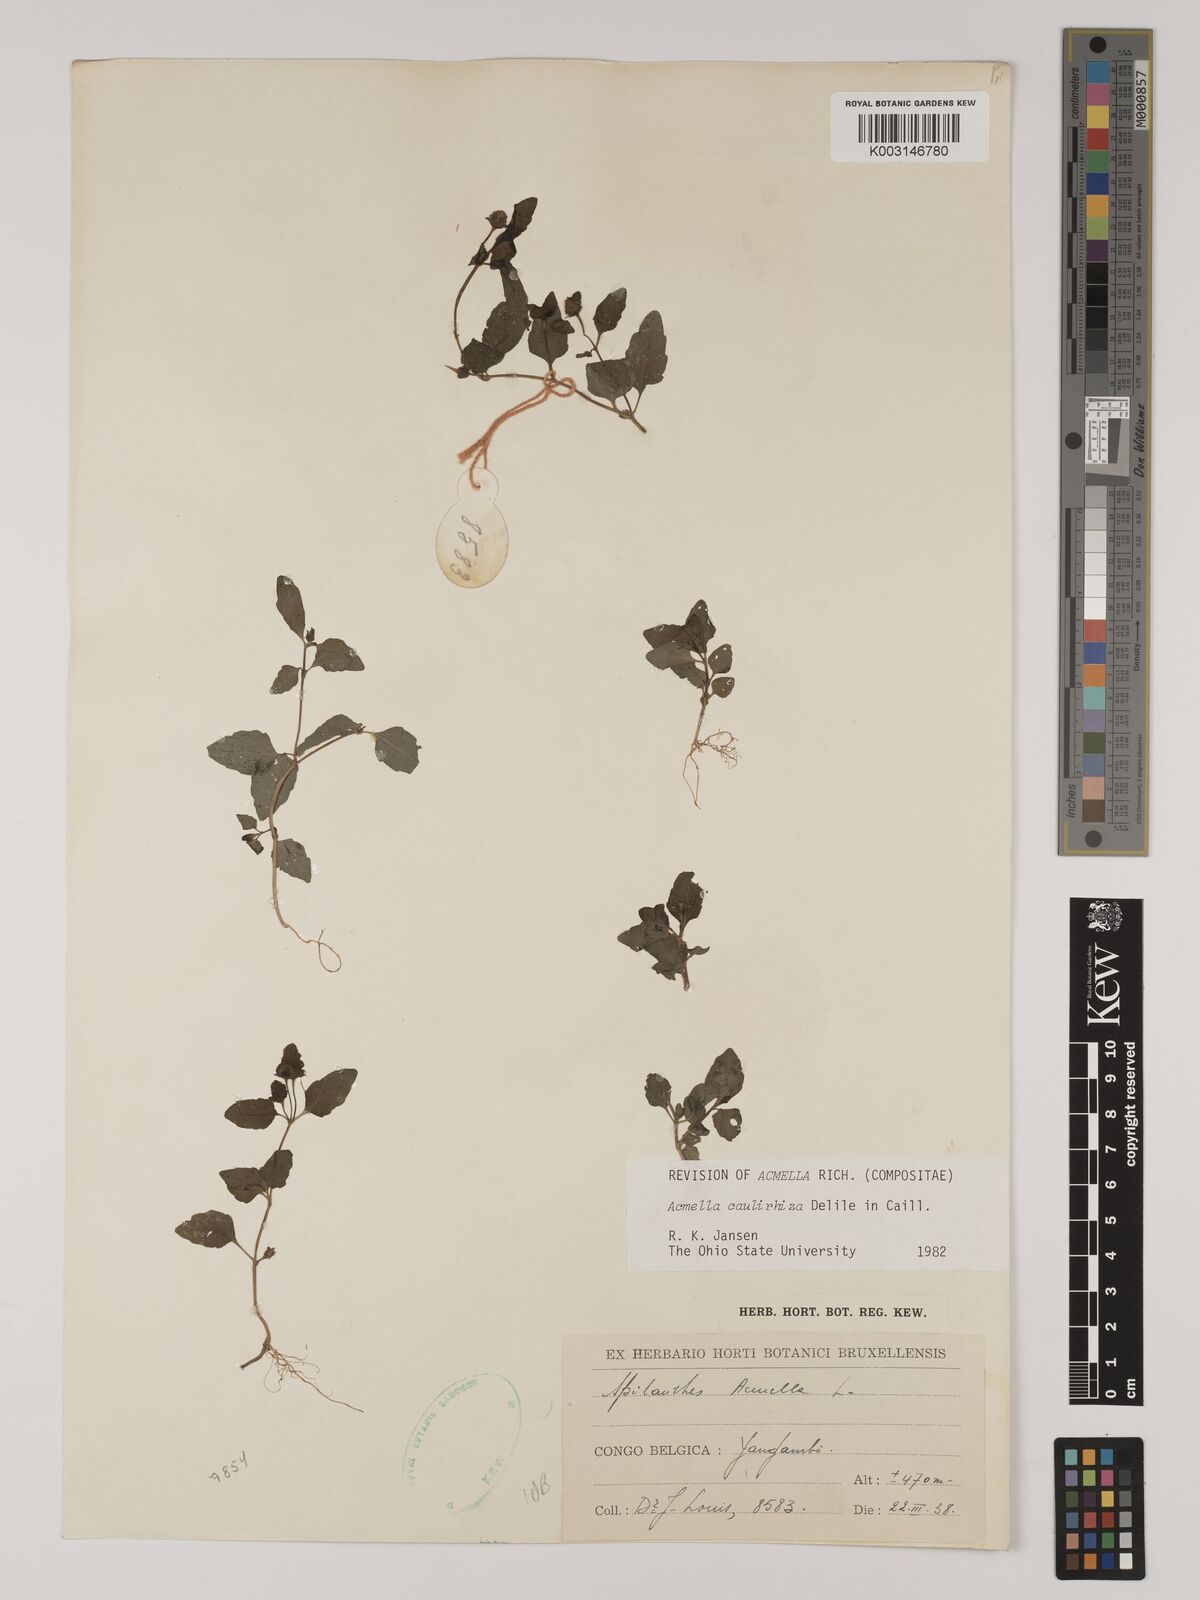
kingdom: Plantae
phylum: Tracheophyta
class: Magnoliopsida
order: Asterales
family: Asteraceae
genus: Acmella
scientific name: Acmella caulirhiza
